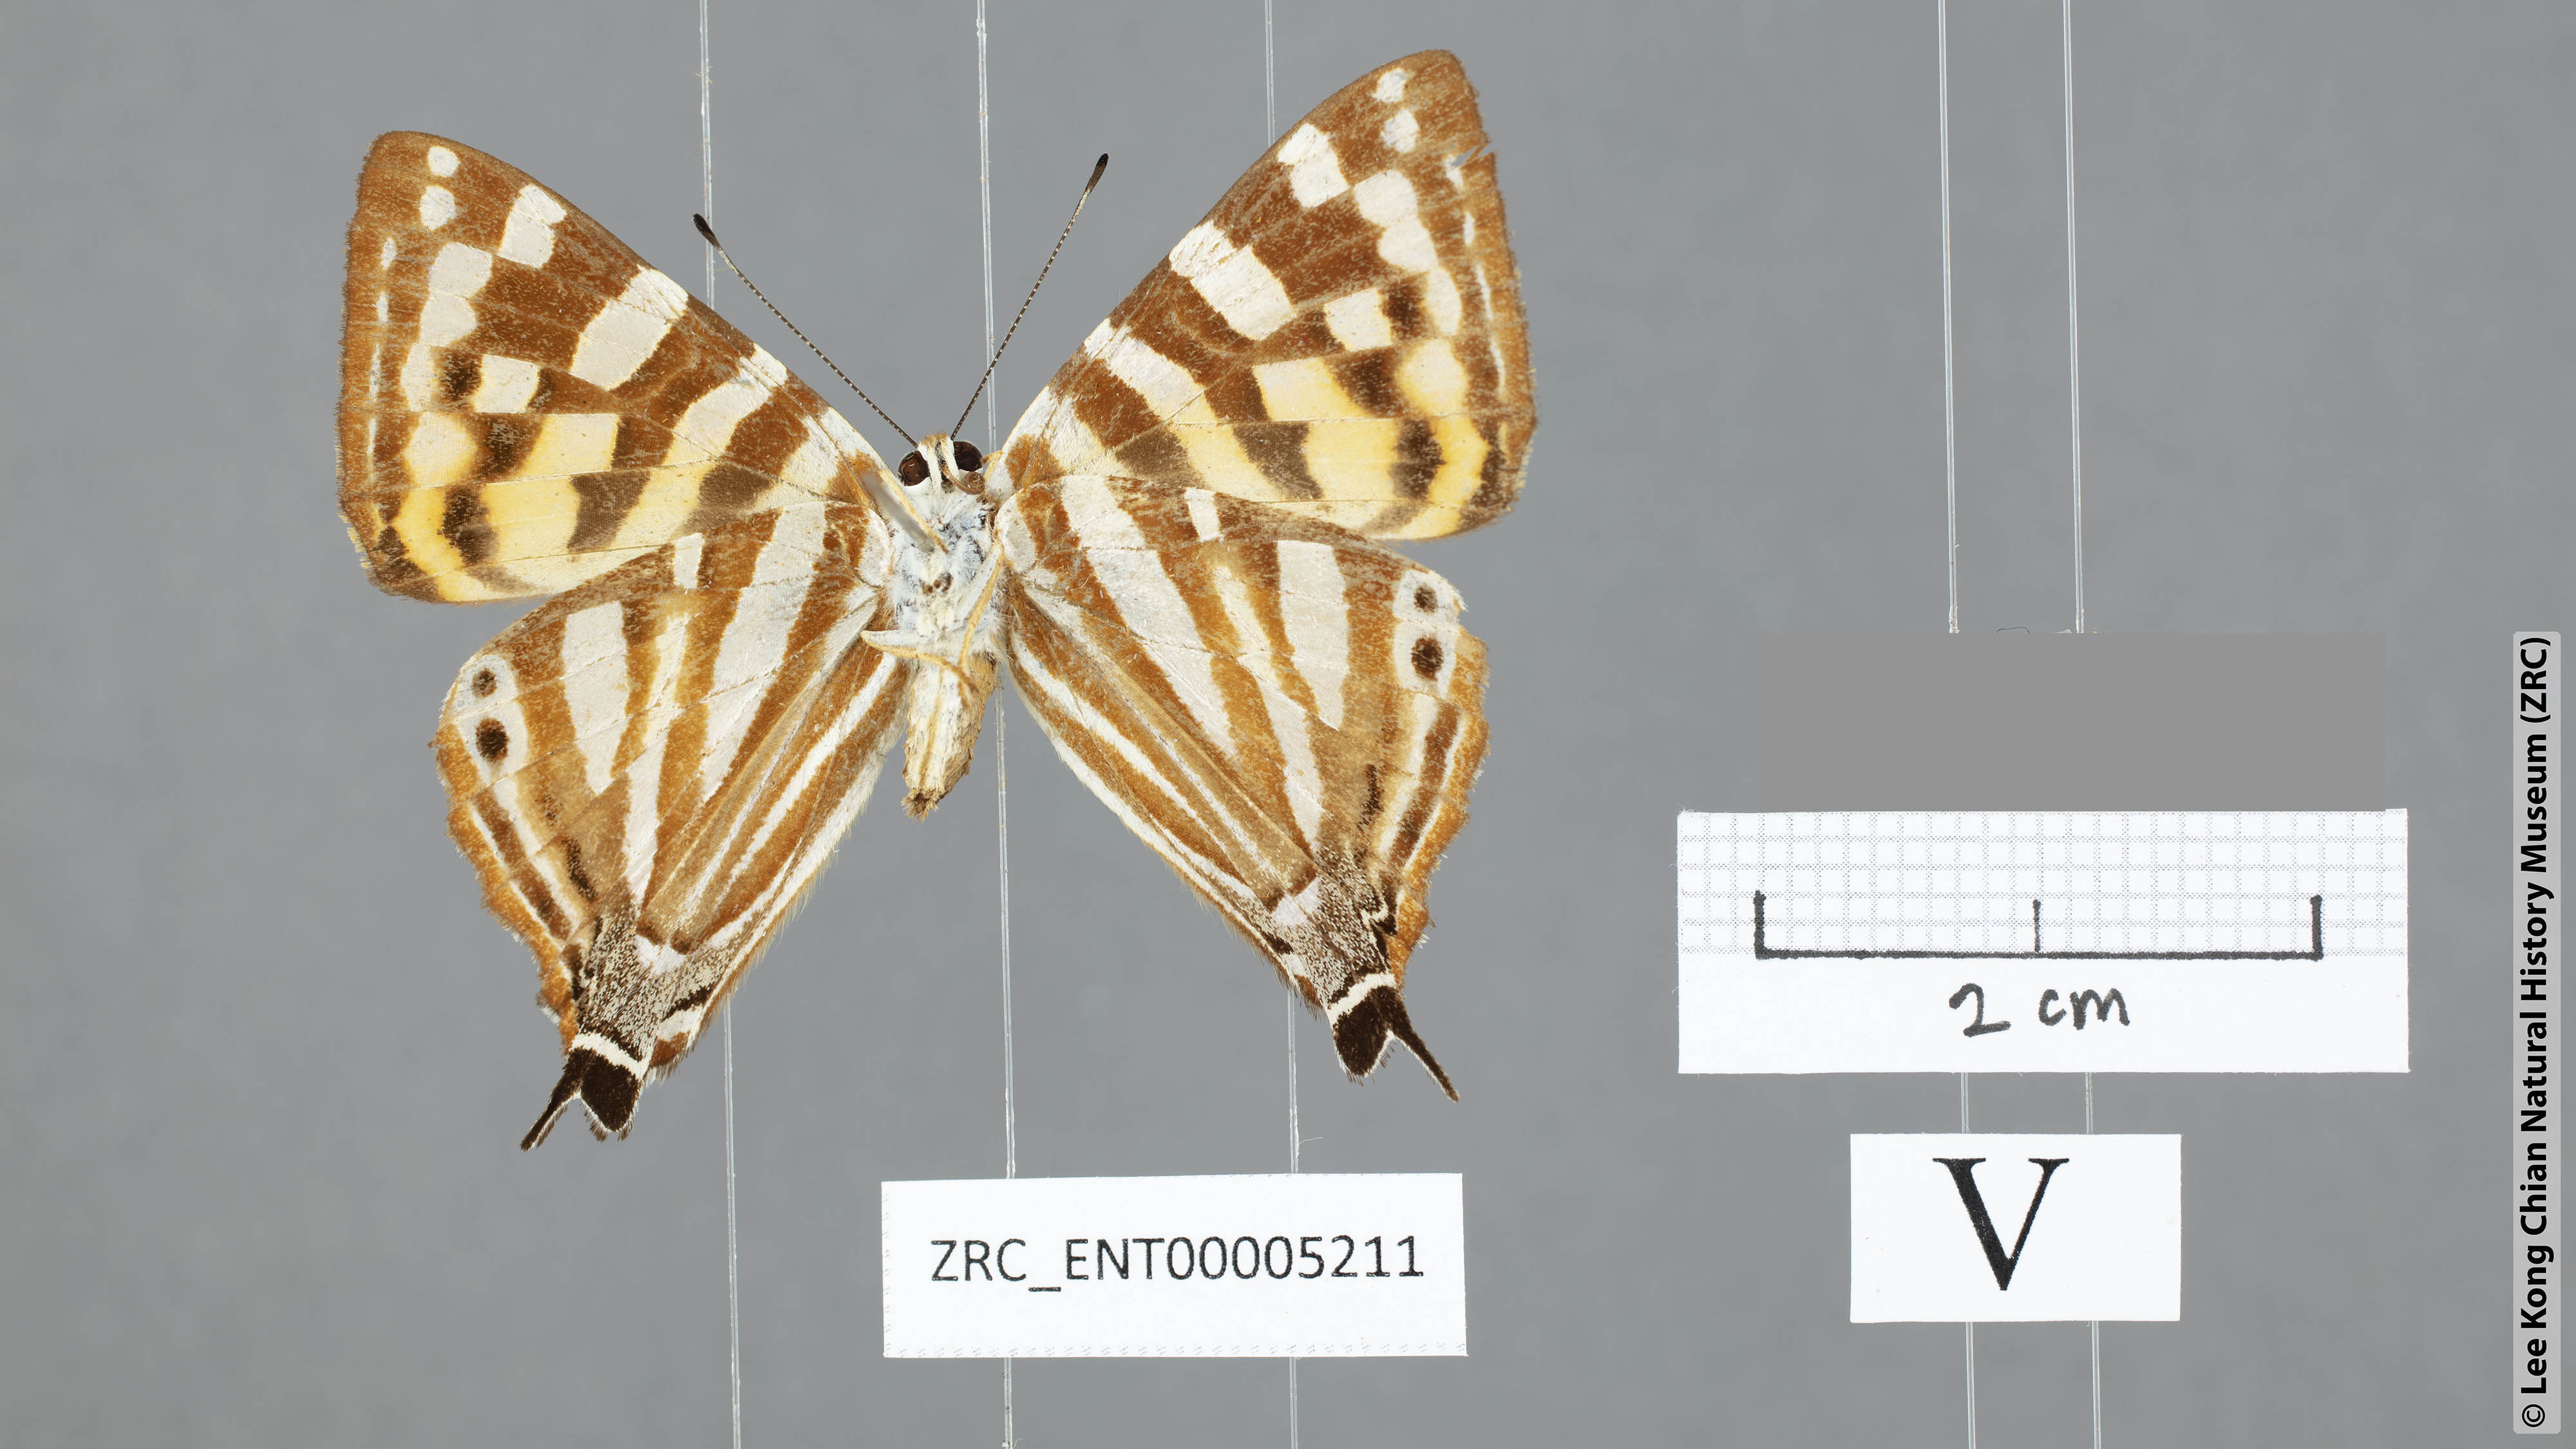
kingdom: Animalia
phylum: Arthropoda
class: Insecta
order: Lepidoptera
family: Lycaenidae
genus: Dodona
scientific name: Dodona egeon
